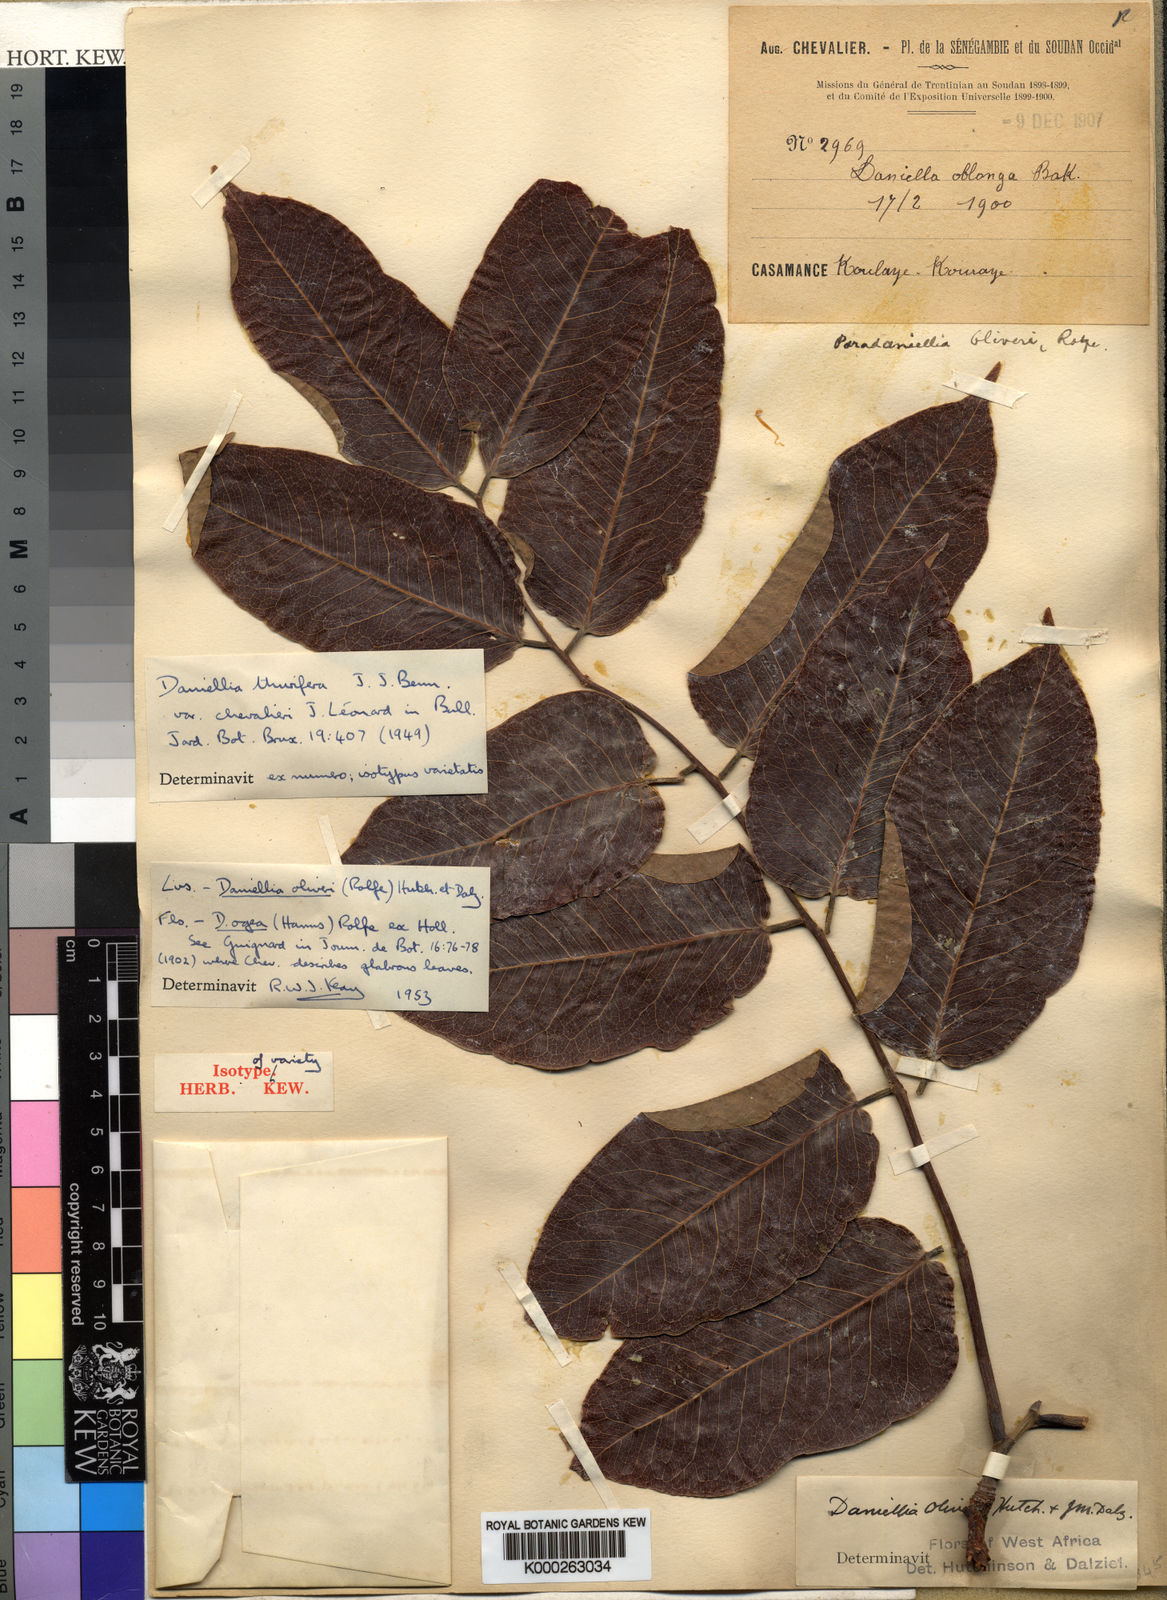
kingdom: Plantae
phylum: Tracheophyta
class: Magnoliopsida
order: Fabales
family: Fabaceae
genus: Daniellia
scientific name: Daniellia thurifera
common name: Sudan copal
